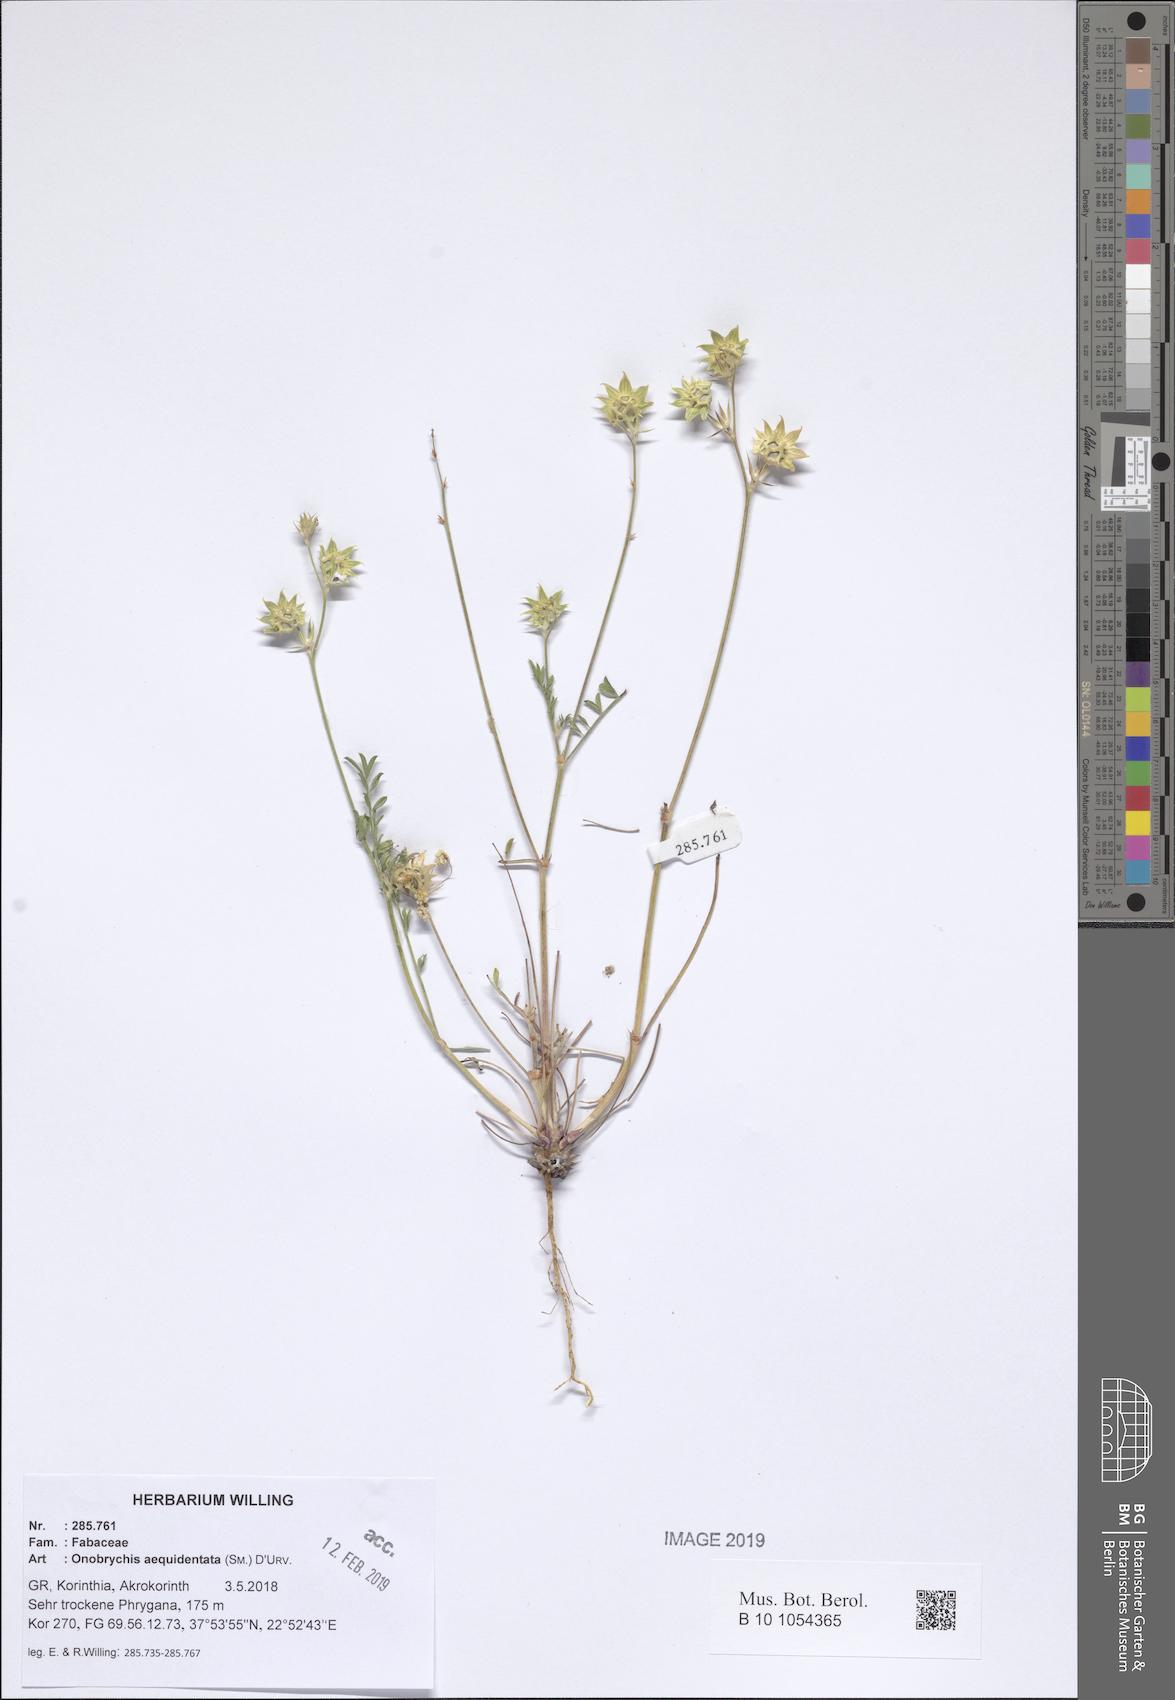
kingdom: Plantae
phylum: Tracheophyta
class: Magnoliopsida
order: Fabales
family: Fabaceae
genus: Onobrychis
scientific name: Onobrychis aequidentata
